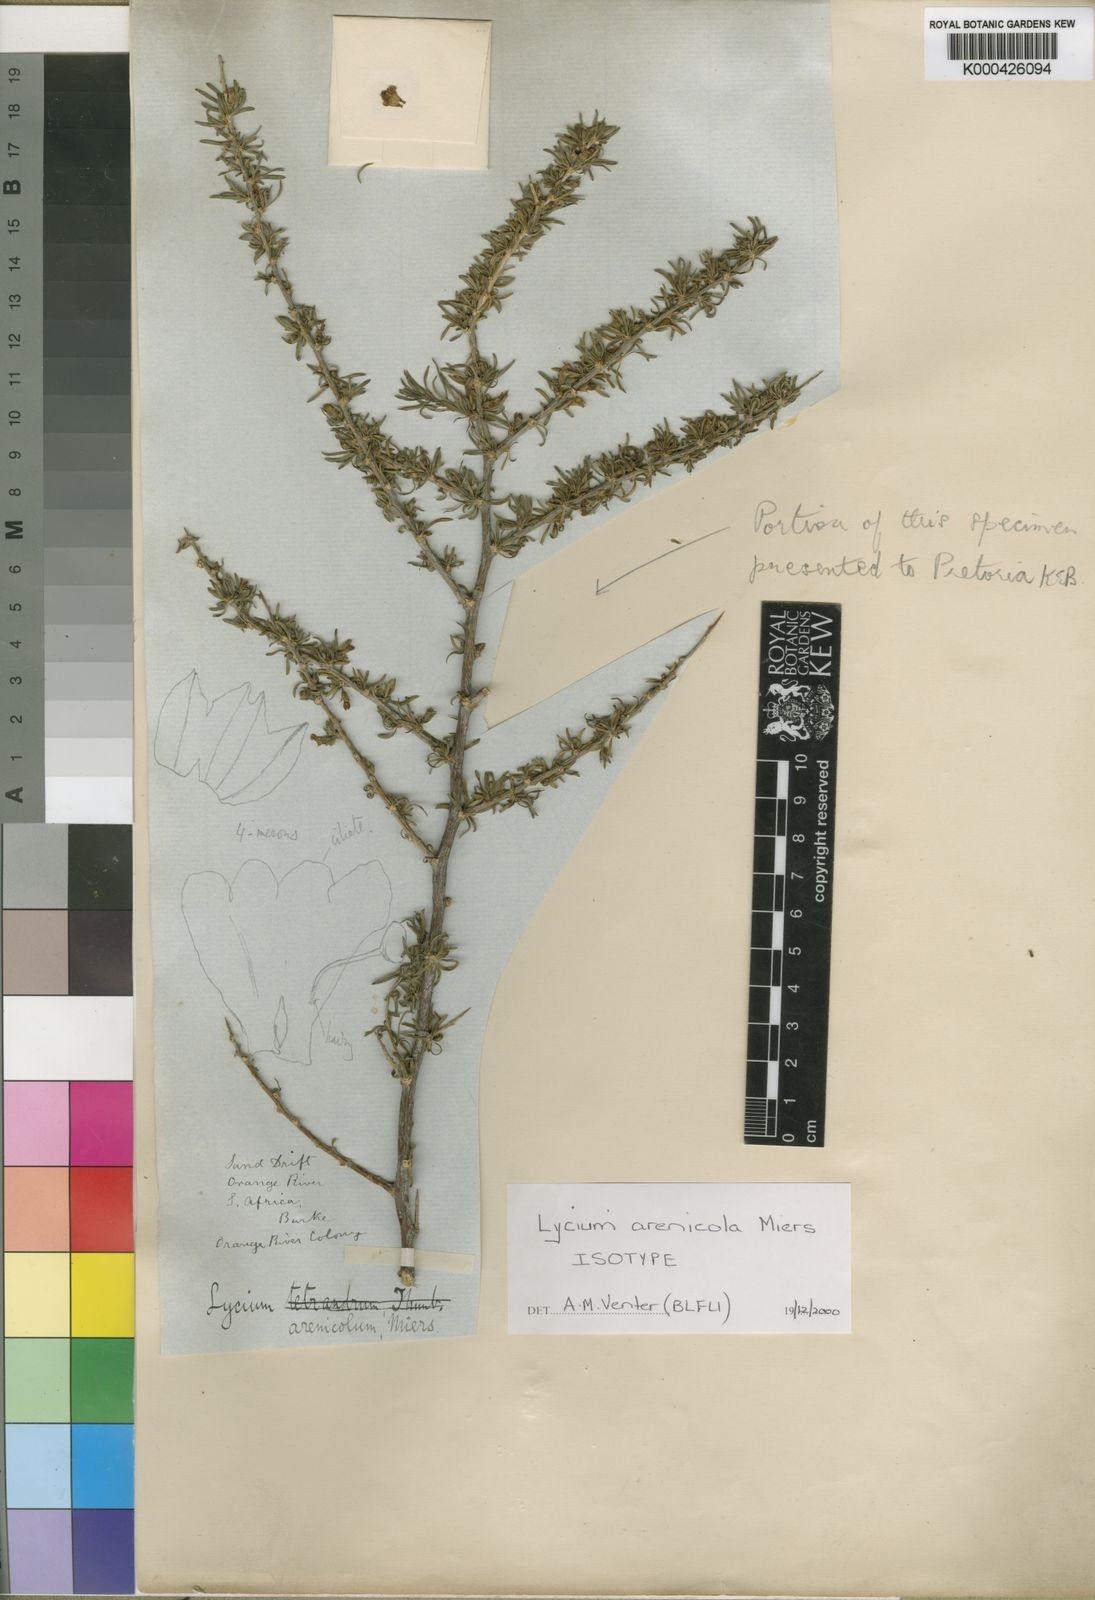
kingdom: Plantae
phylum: Tracheophyta
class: Magnoliopsida
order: Solanales
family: Solanaceae
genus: Lycium
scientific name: Lycium arenicola
